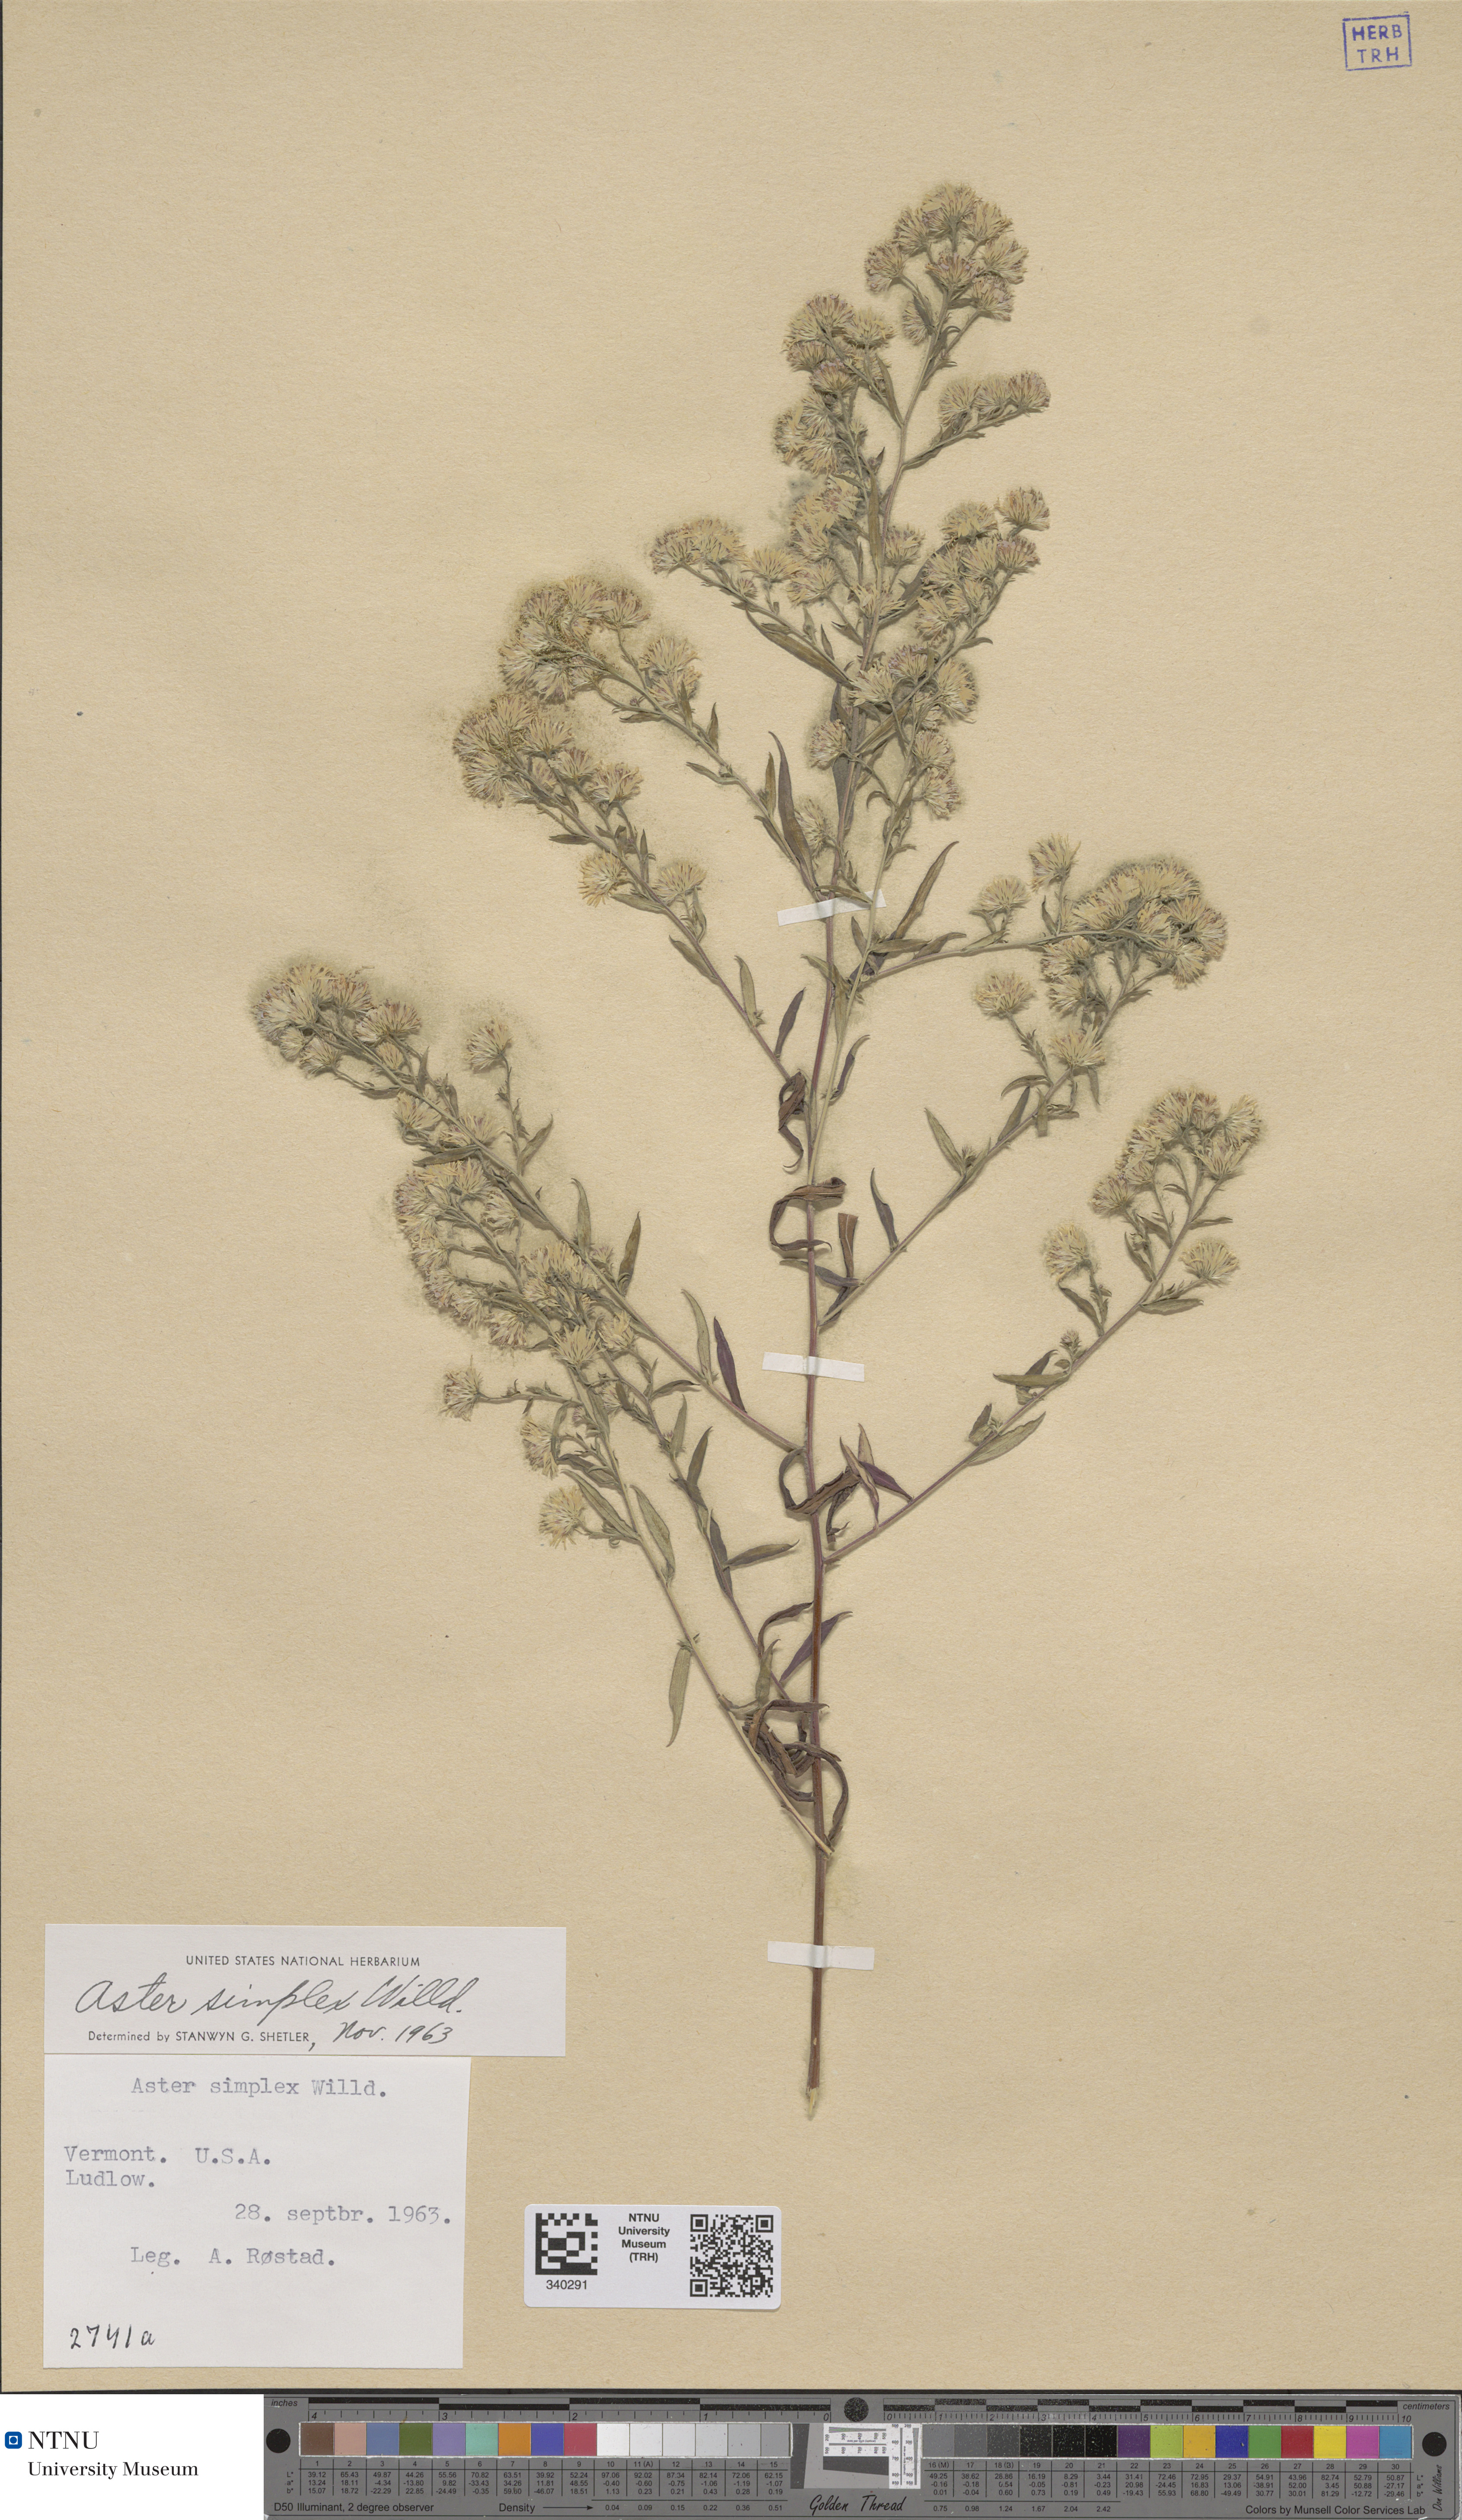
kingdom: Plantae
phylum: Tracheophyta
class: Magnoliopsida
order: Asterales
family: Asteraceae
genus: Symphyotrichum
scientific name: Symphyotrichum lanceolatum
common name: Panicled aster
